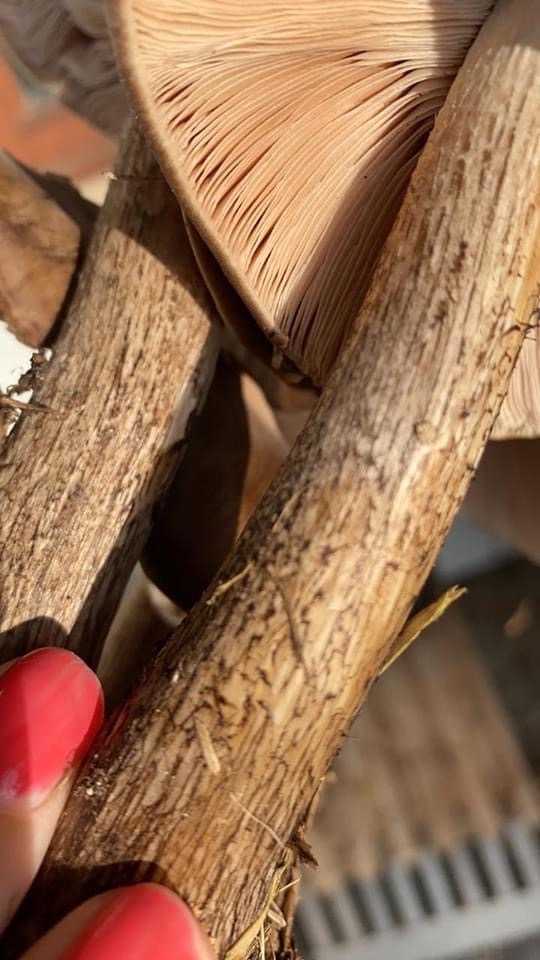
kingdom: Fungi
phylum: Basidiomycota
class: Agaricomycetes
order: Agaricales
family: Pluteaceae
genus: Pluteus
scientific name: Pluteus cervinus
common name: sodfarvet skærmhat
